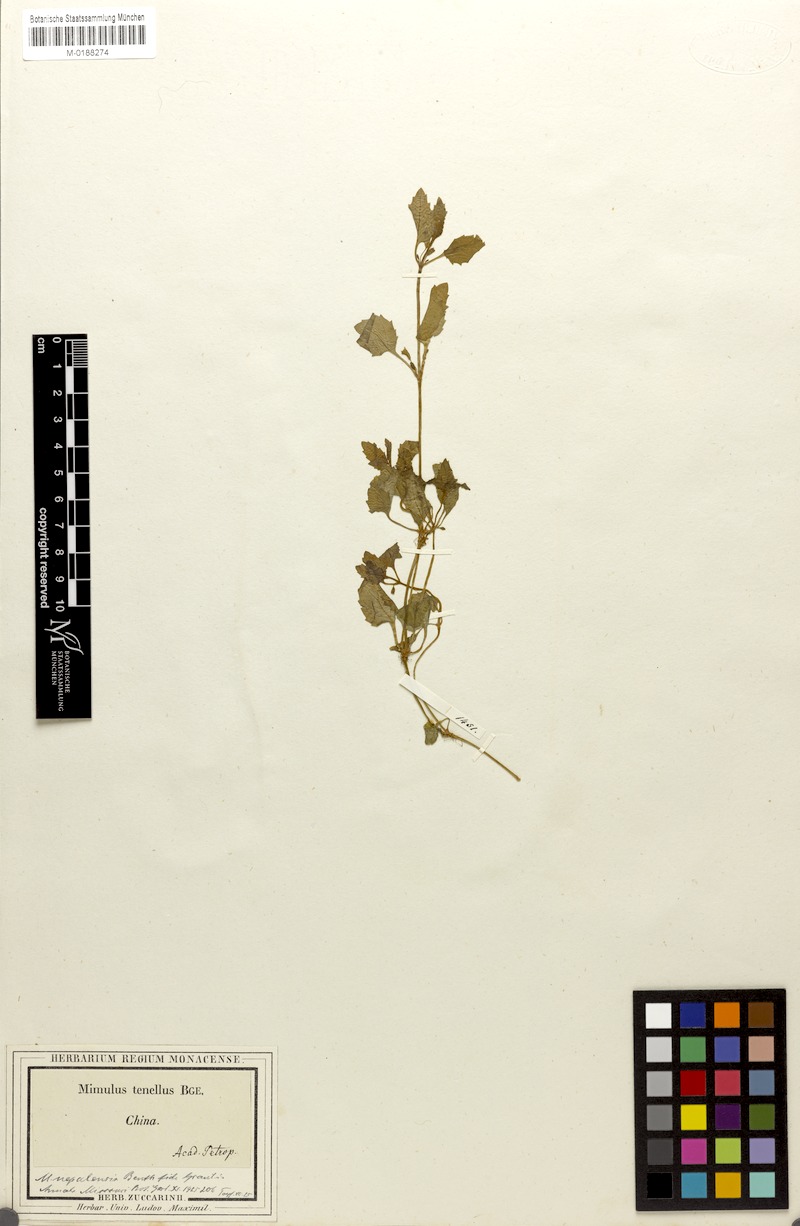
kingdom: Plantae
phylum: Tracheophyta
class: Magnoliopsida
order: Lamiales
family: Phrymaceae
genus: Erythranthe
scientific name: Erythranthe nepalensis
